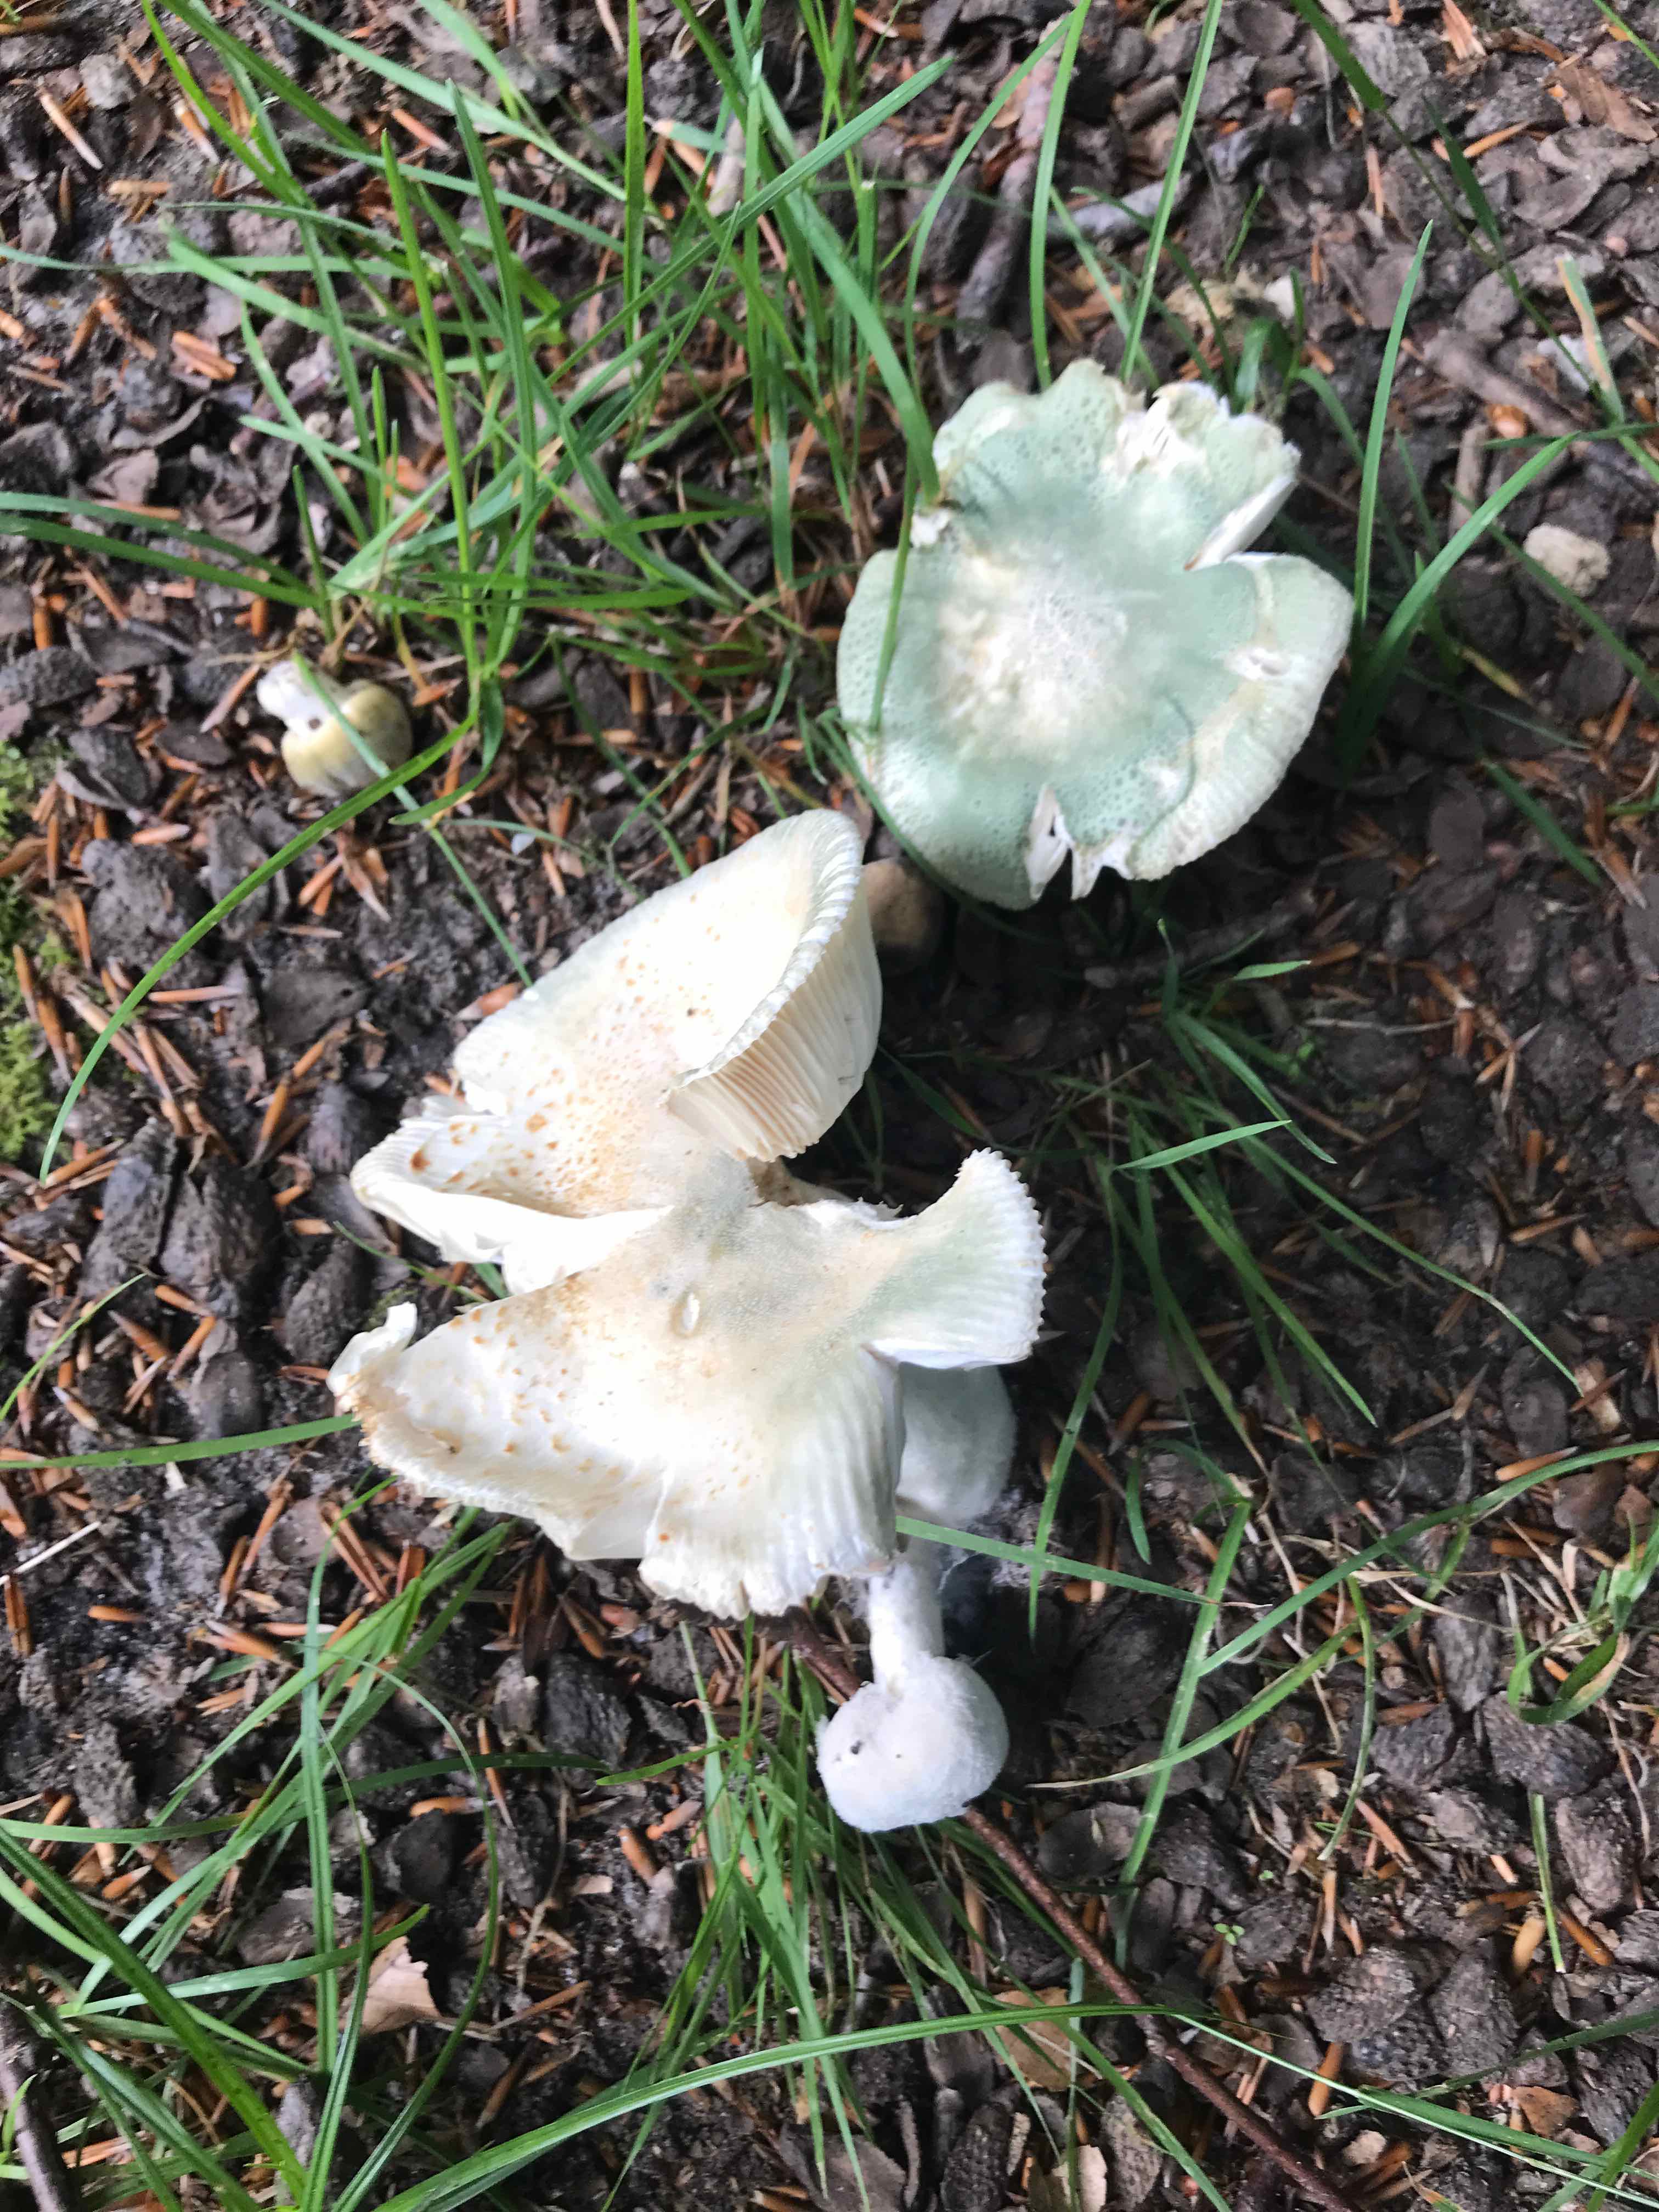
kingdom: Fungi
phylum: Basidiomycota
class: Agaricomycetes
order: Russulales
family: Russulaceae
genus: Russula
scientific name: Russula virescens
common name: spanskgrøn skørhat
